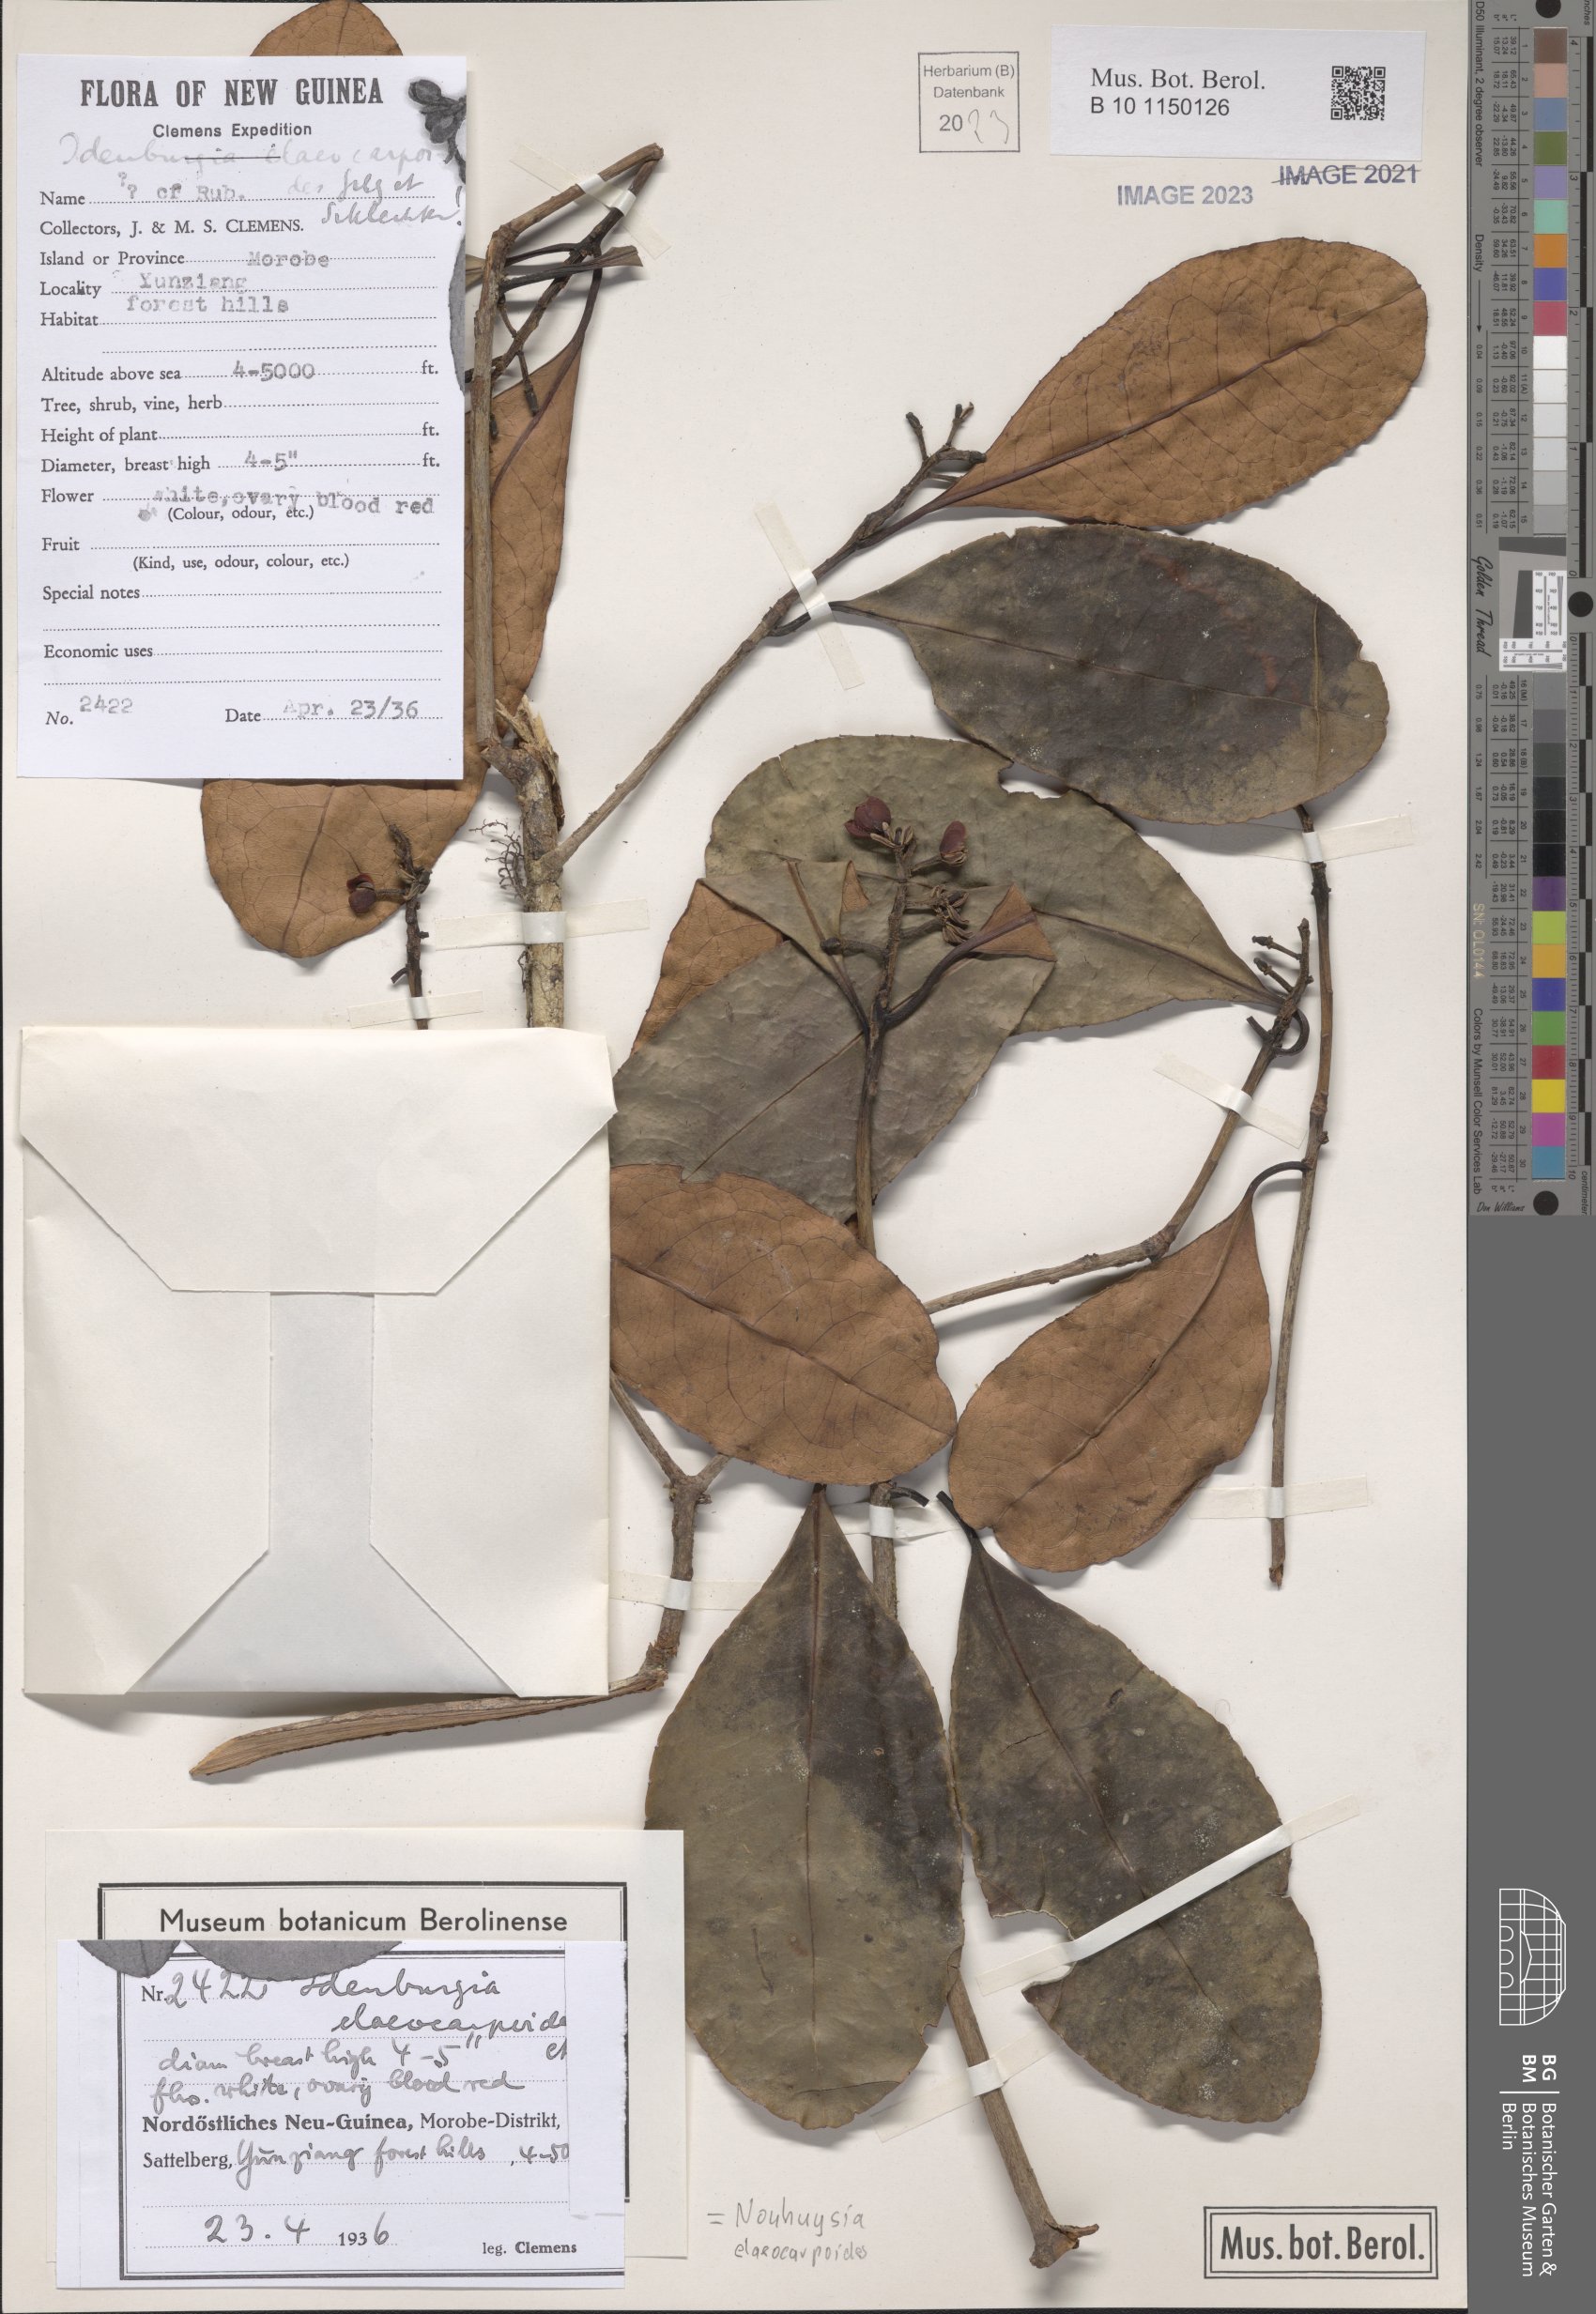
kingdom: Plantae
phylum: Tracheophyta
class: Magnoliopsida
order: Paracryphiales
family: Paracryphiaceae
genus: Sphenostemon
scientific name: Sphenostemon papuanus
